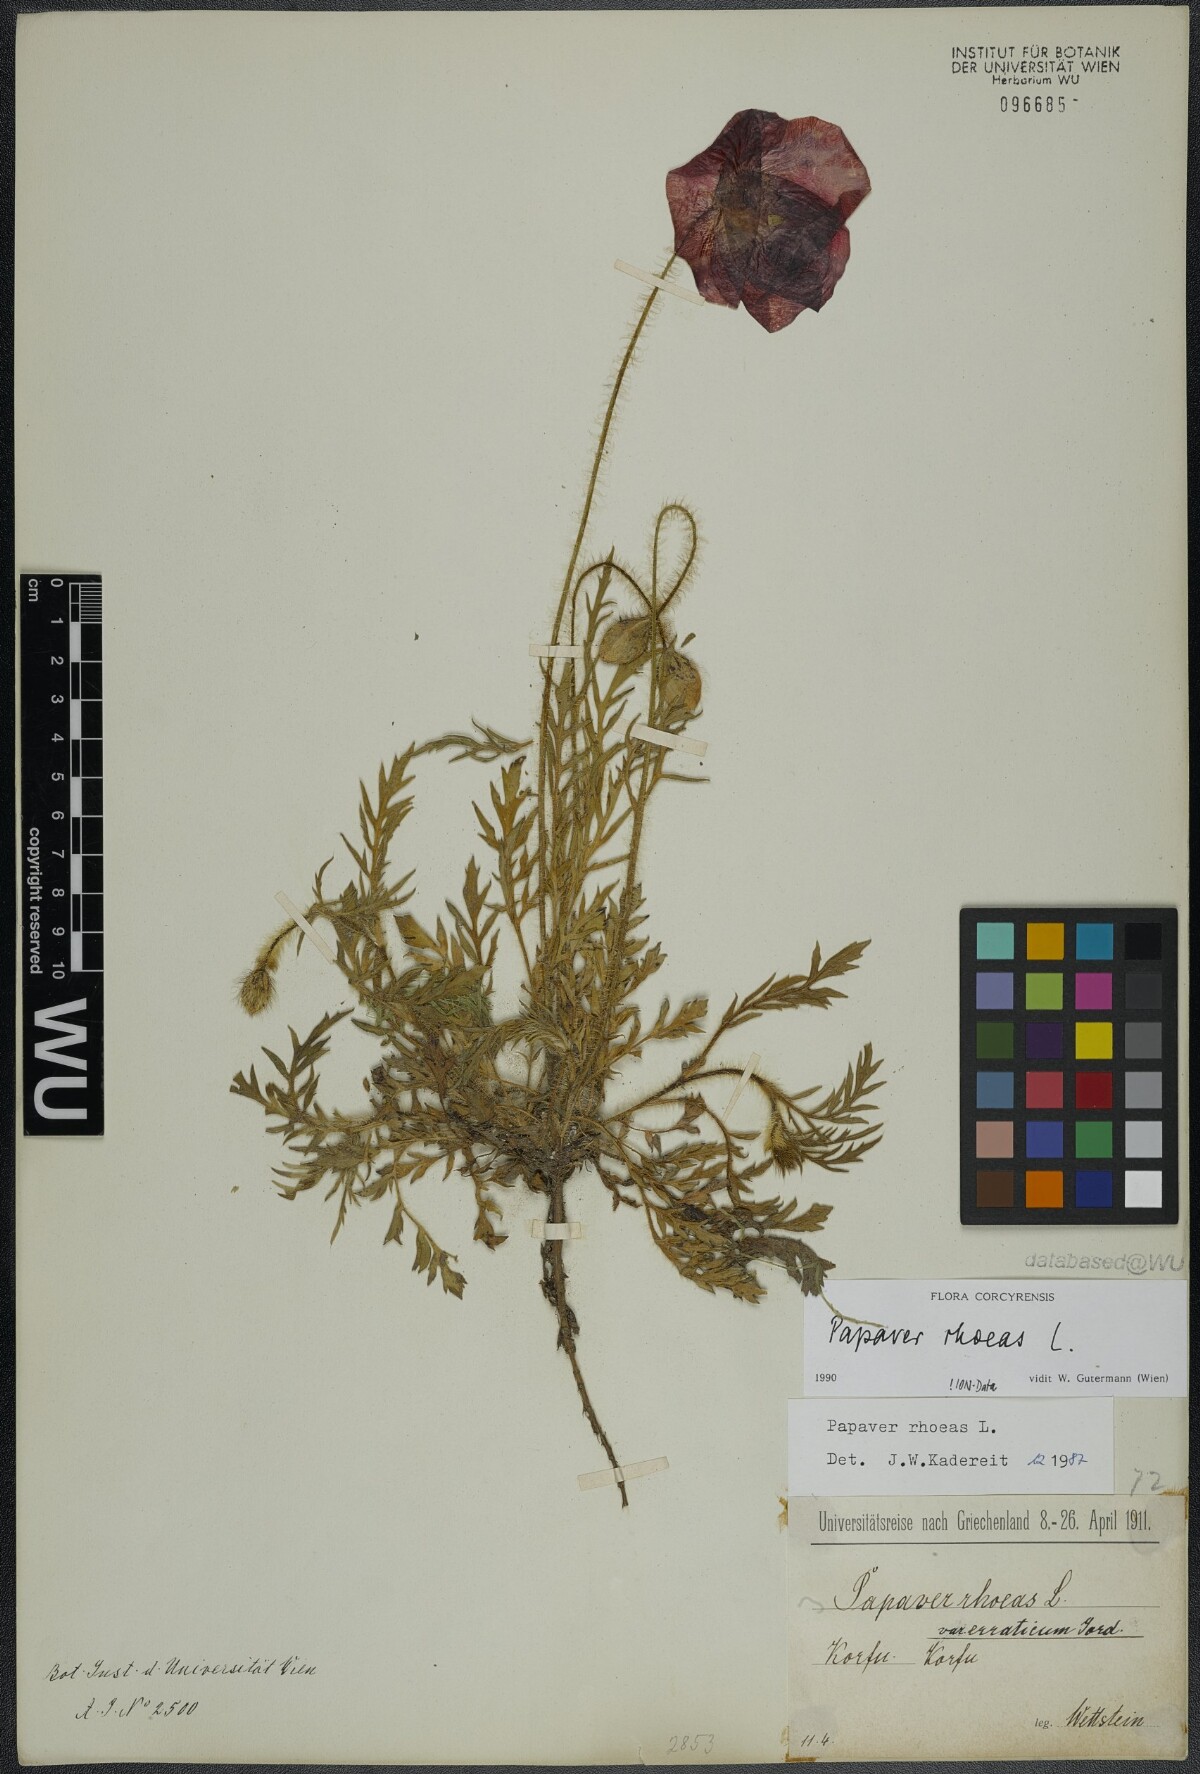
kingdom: Plantae
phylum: Tracheophyta
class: Magnoliopsida
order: Ranunculales
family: Papaveraceae
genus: Papaver
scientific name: Papaver rhoeas
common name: Corn poppy
